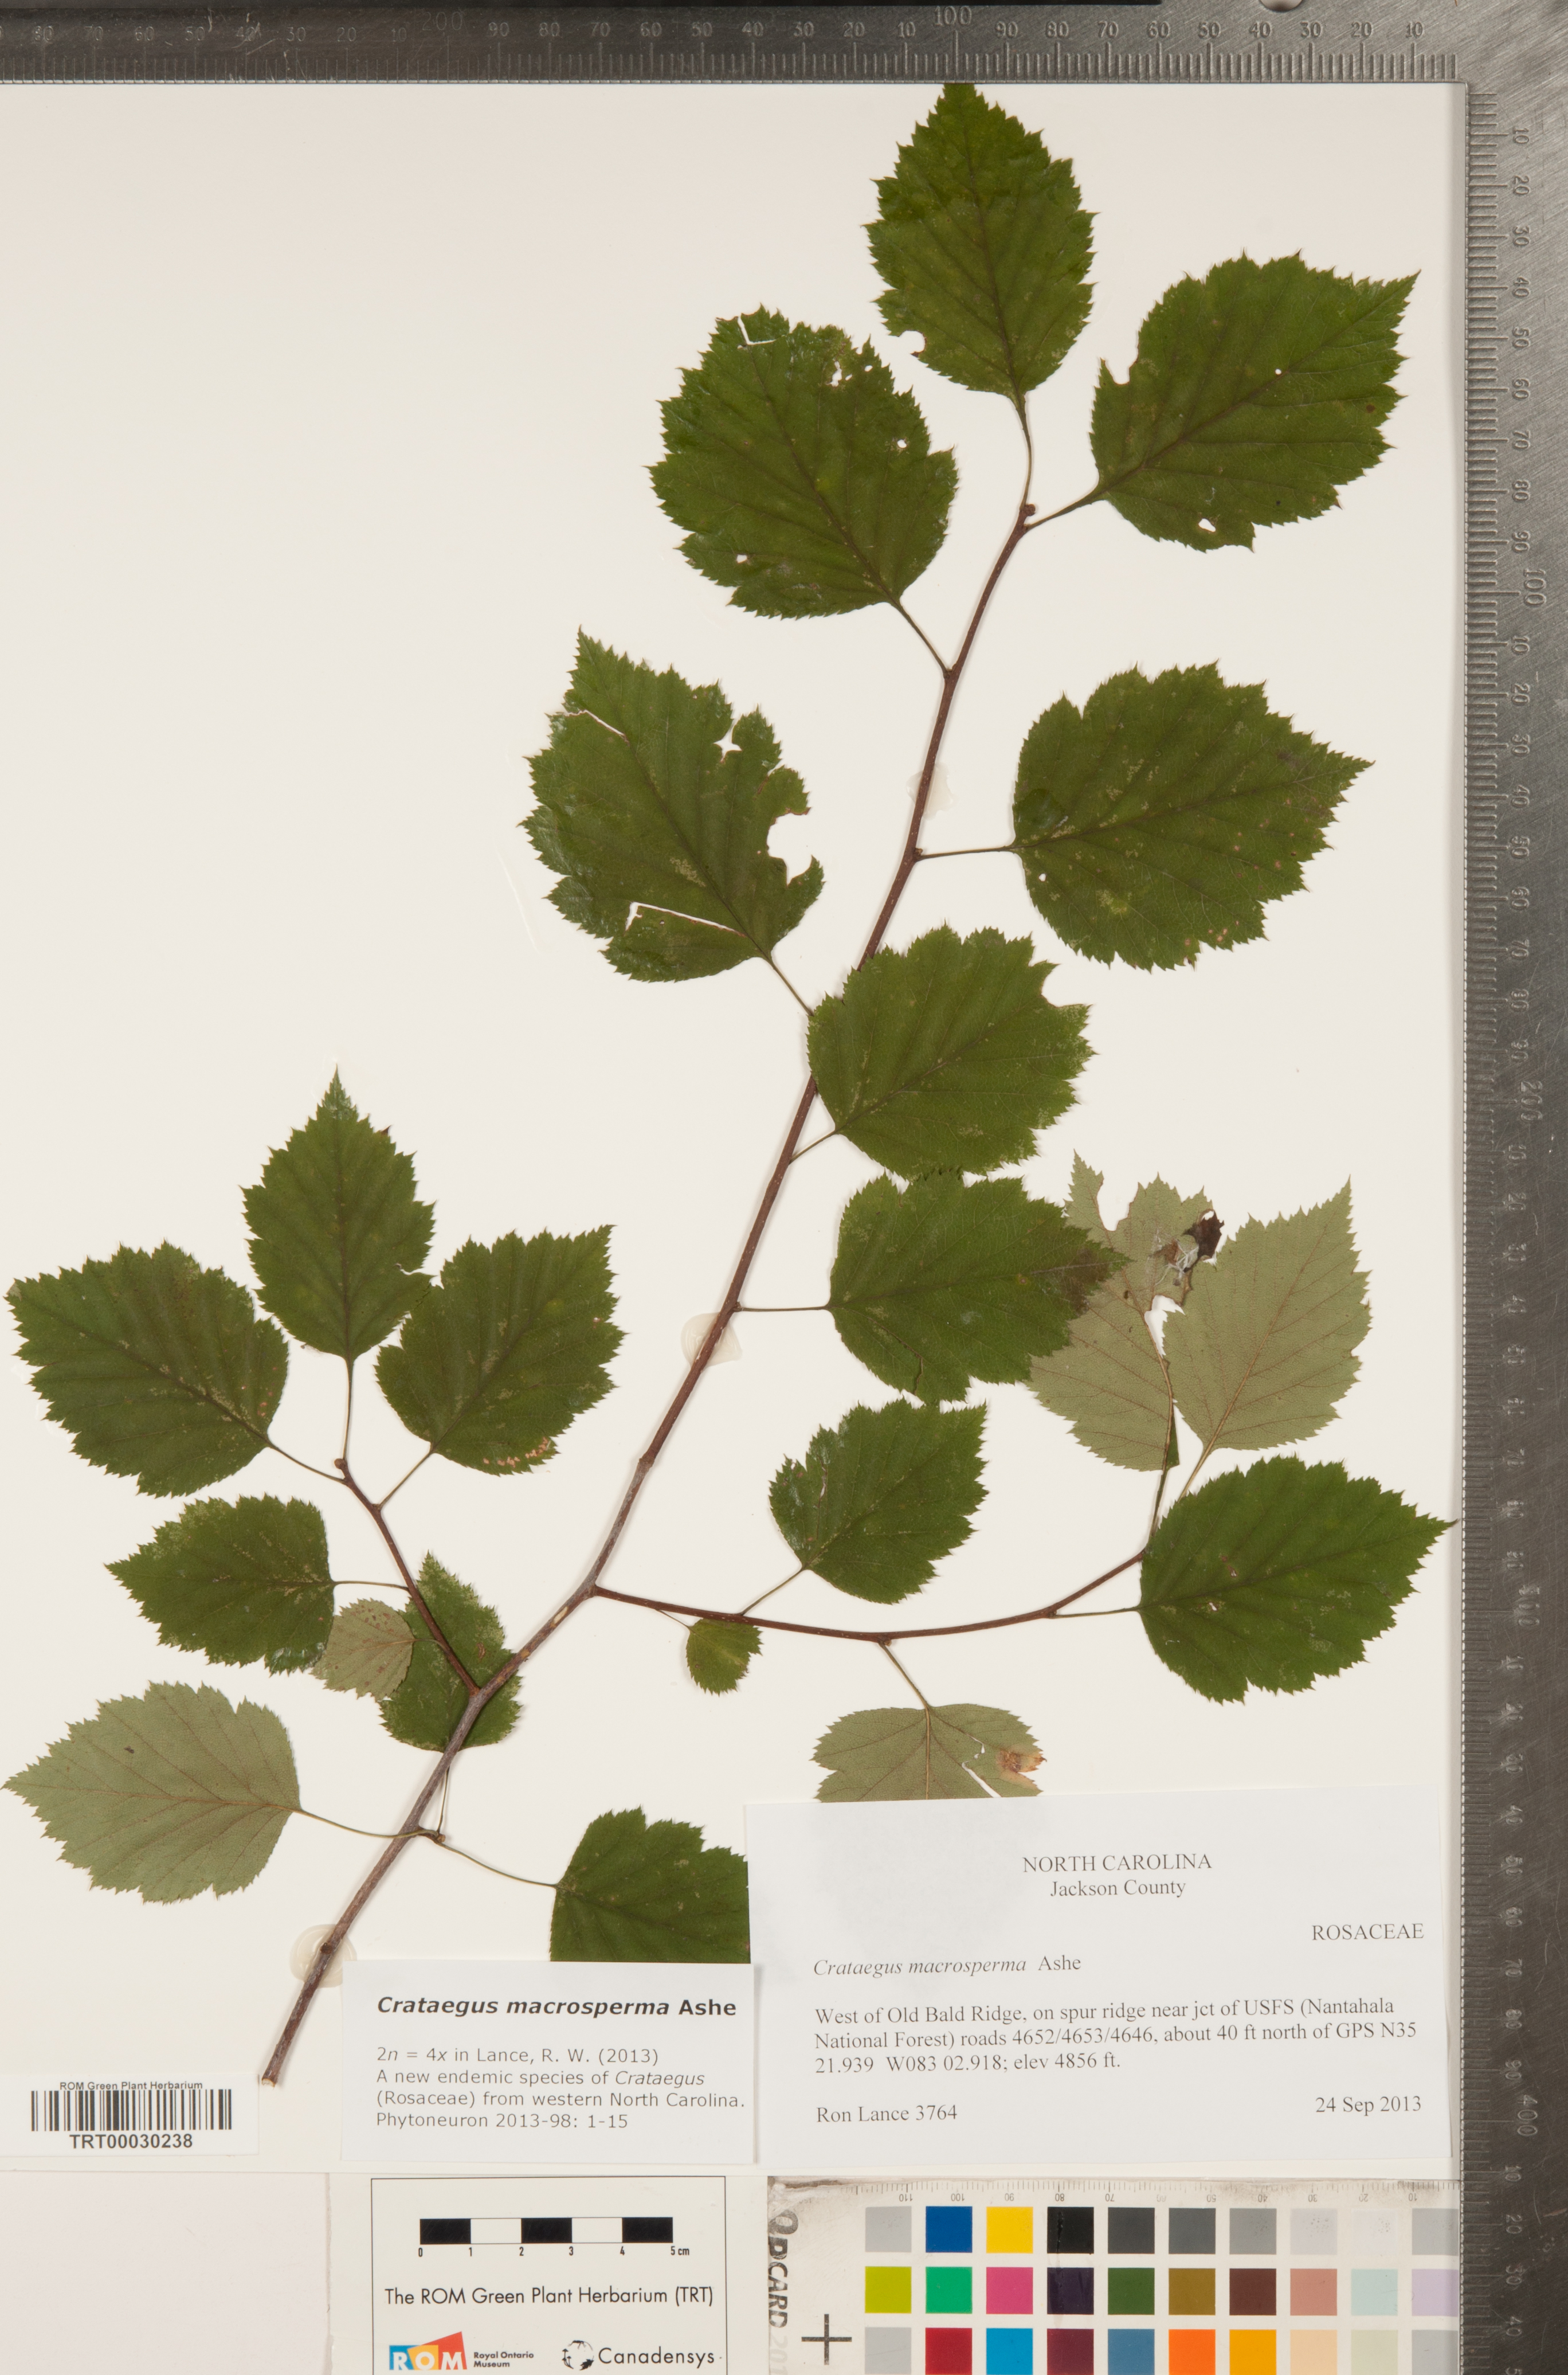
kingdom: Plantae
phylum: Tracheophyta
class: Magnoliopsida
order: Rosales
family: Rosaceae
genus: Crataegus
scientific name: Crataegus macrosperma
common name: Variable hawthorn
